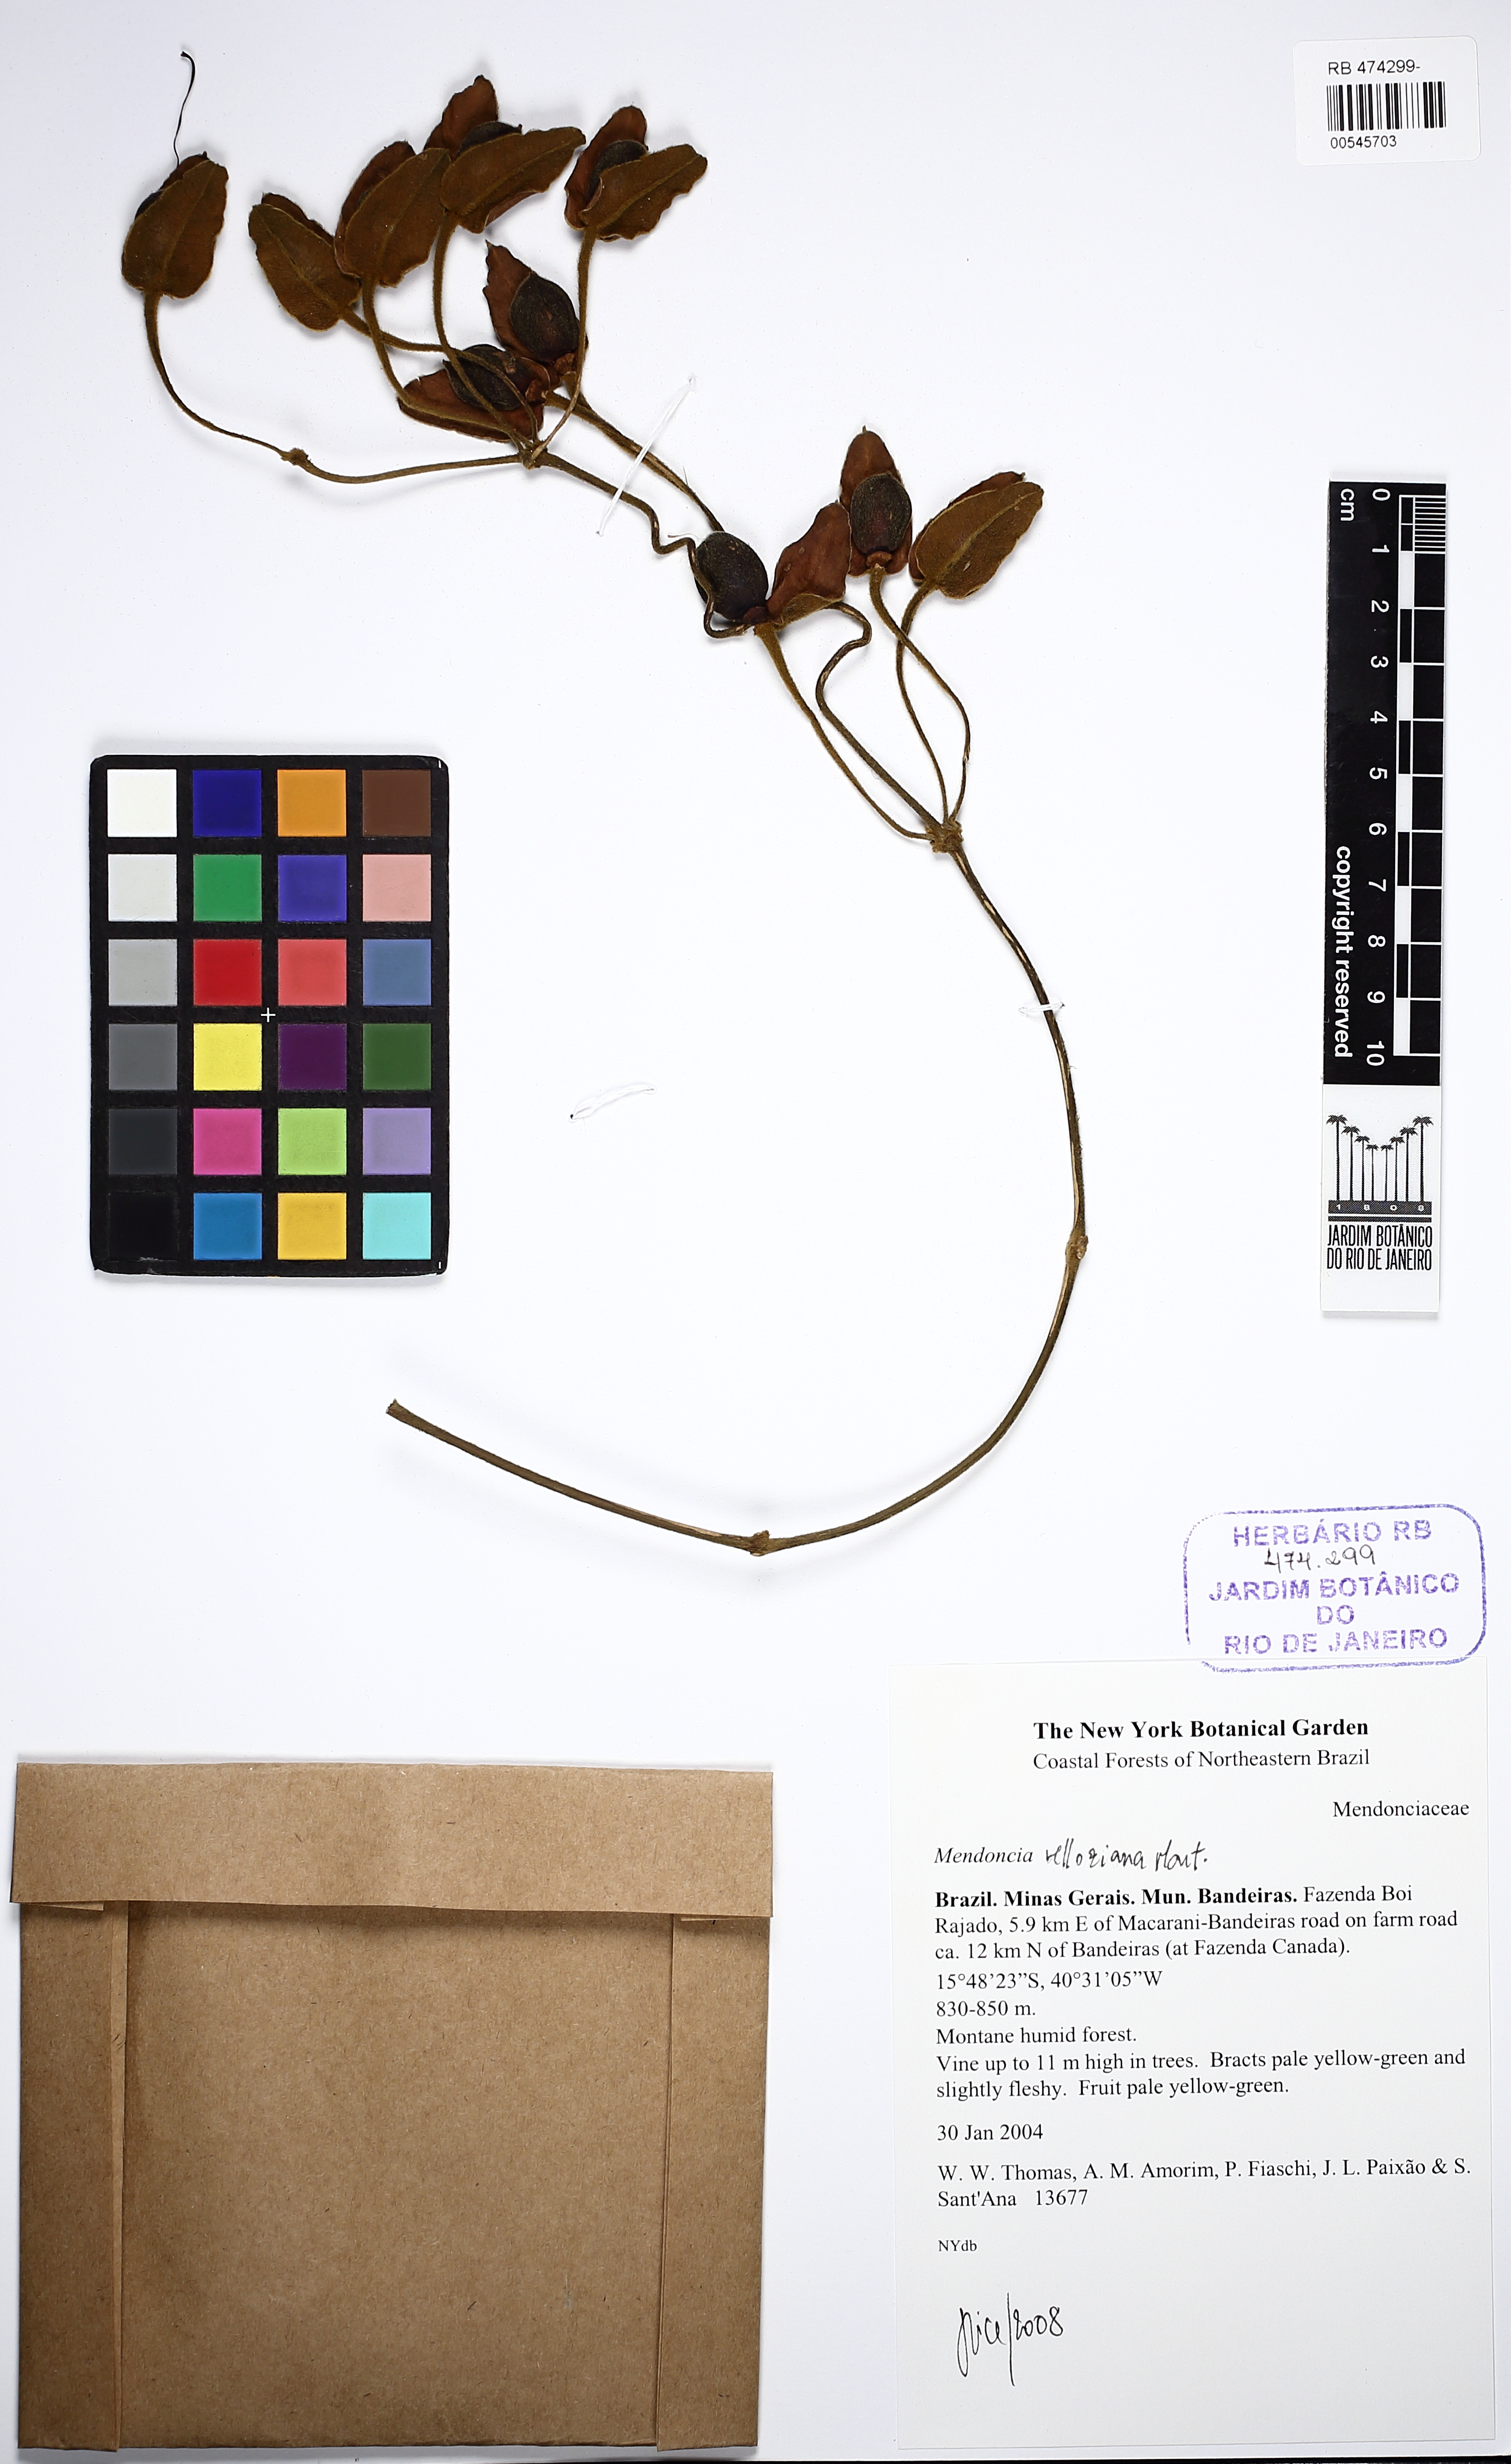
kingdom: Plantae
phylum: Tracheophyta
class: Magnoliopsida
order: Lamiales
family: Acanthaceae
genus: Mendoncia
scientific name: Mendoncia velloziana
